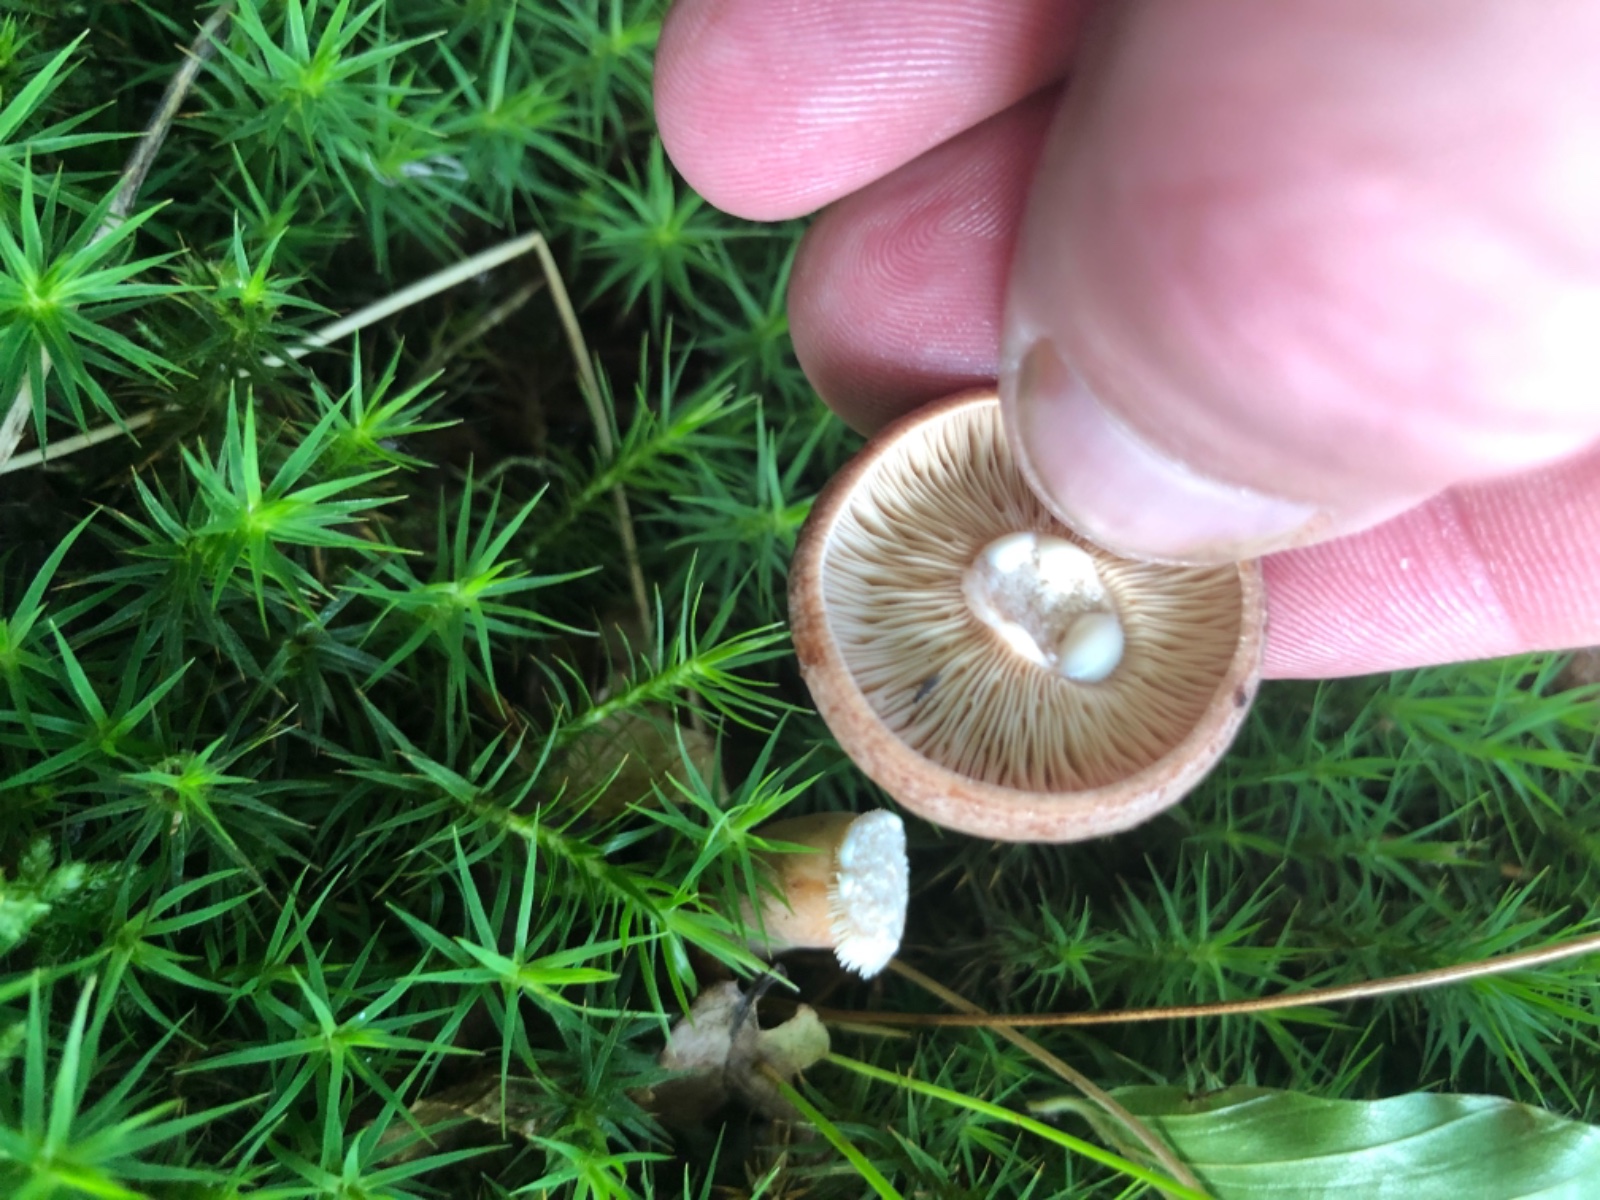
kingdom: Fungi
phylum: Basidiomycota
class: Agaricomycetes
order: Russulales
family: Russulaceae
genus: Lactarius
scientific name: Lactarius
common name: mælkehat
